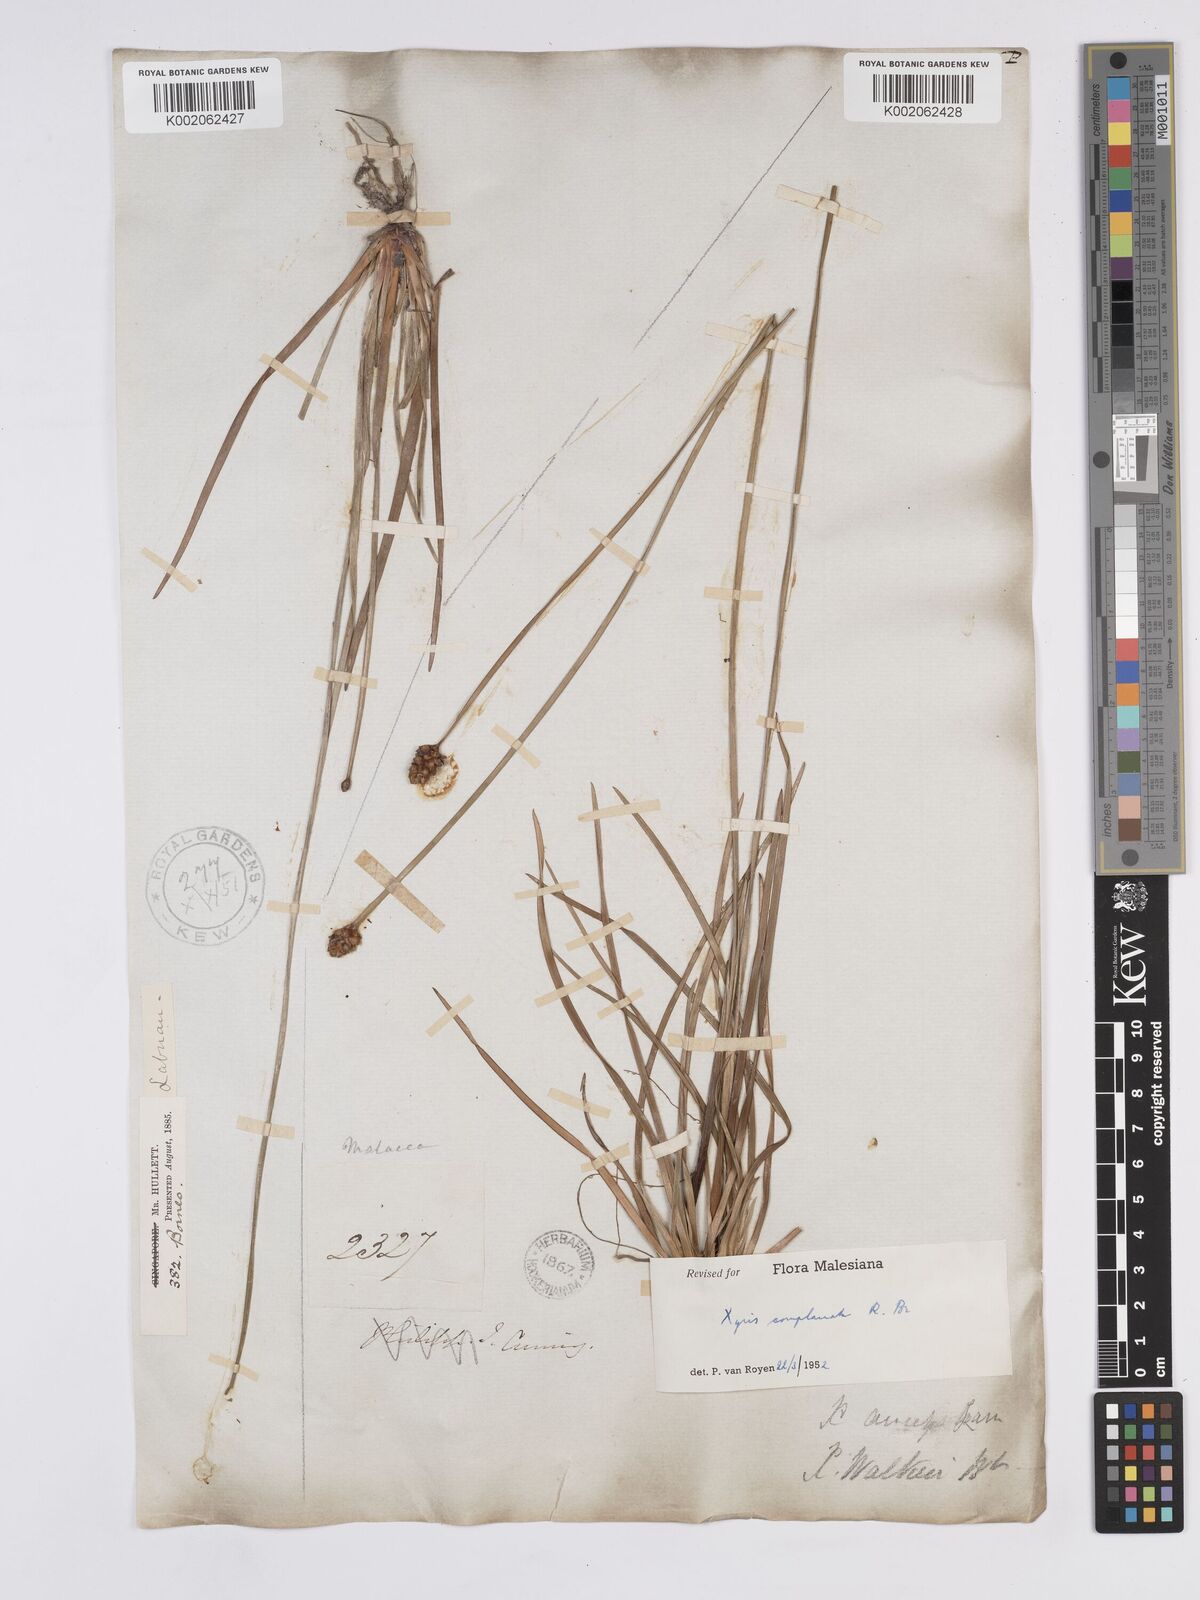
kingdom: Plantae
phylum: Tracheophyta
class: Liliopsida
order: Poales
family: Xyridaceae
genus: Xyris
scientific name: Xyris complanata
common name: Hawai'i yelloweyed grass
